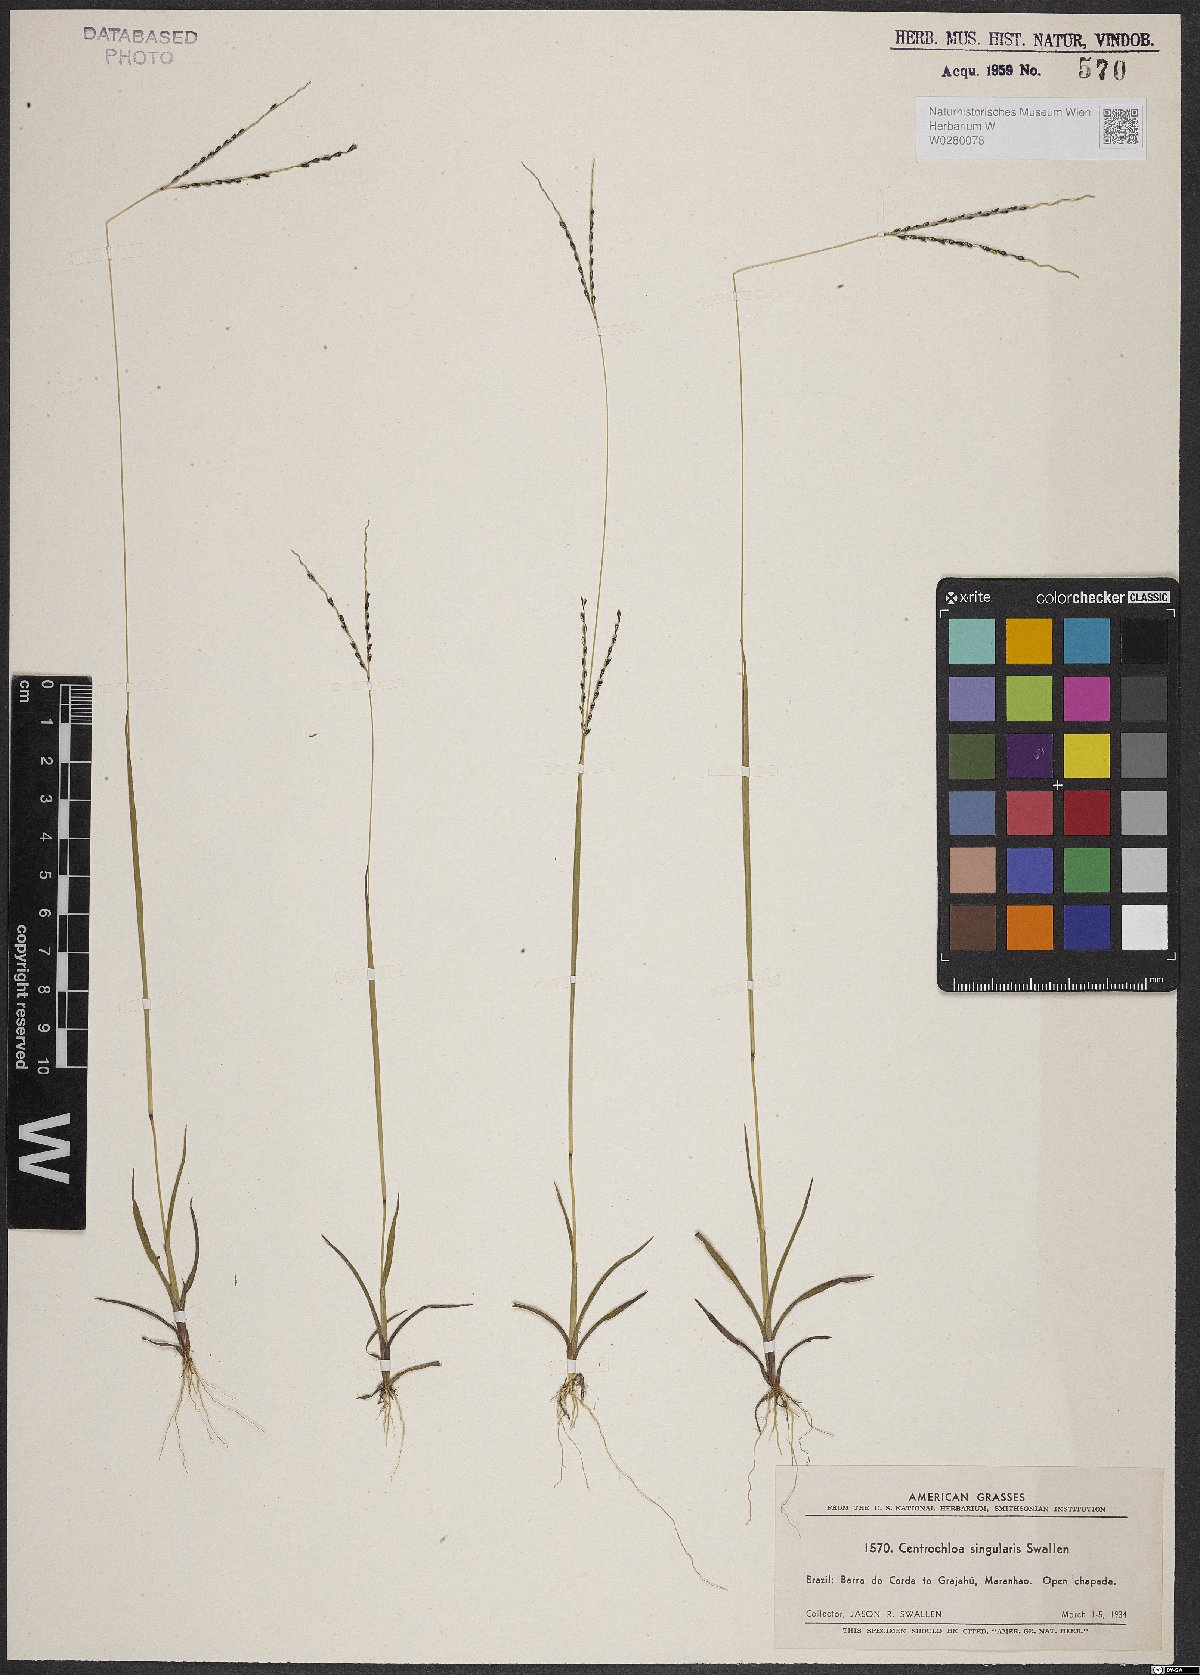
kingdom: Plantae
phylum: Tracheophyta
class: Liliopsida
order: Poales
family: Poaceae
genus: Axonopus
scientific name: Axonopus singularis
